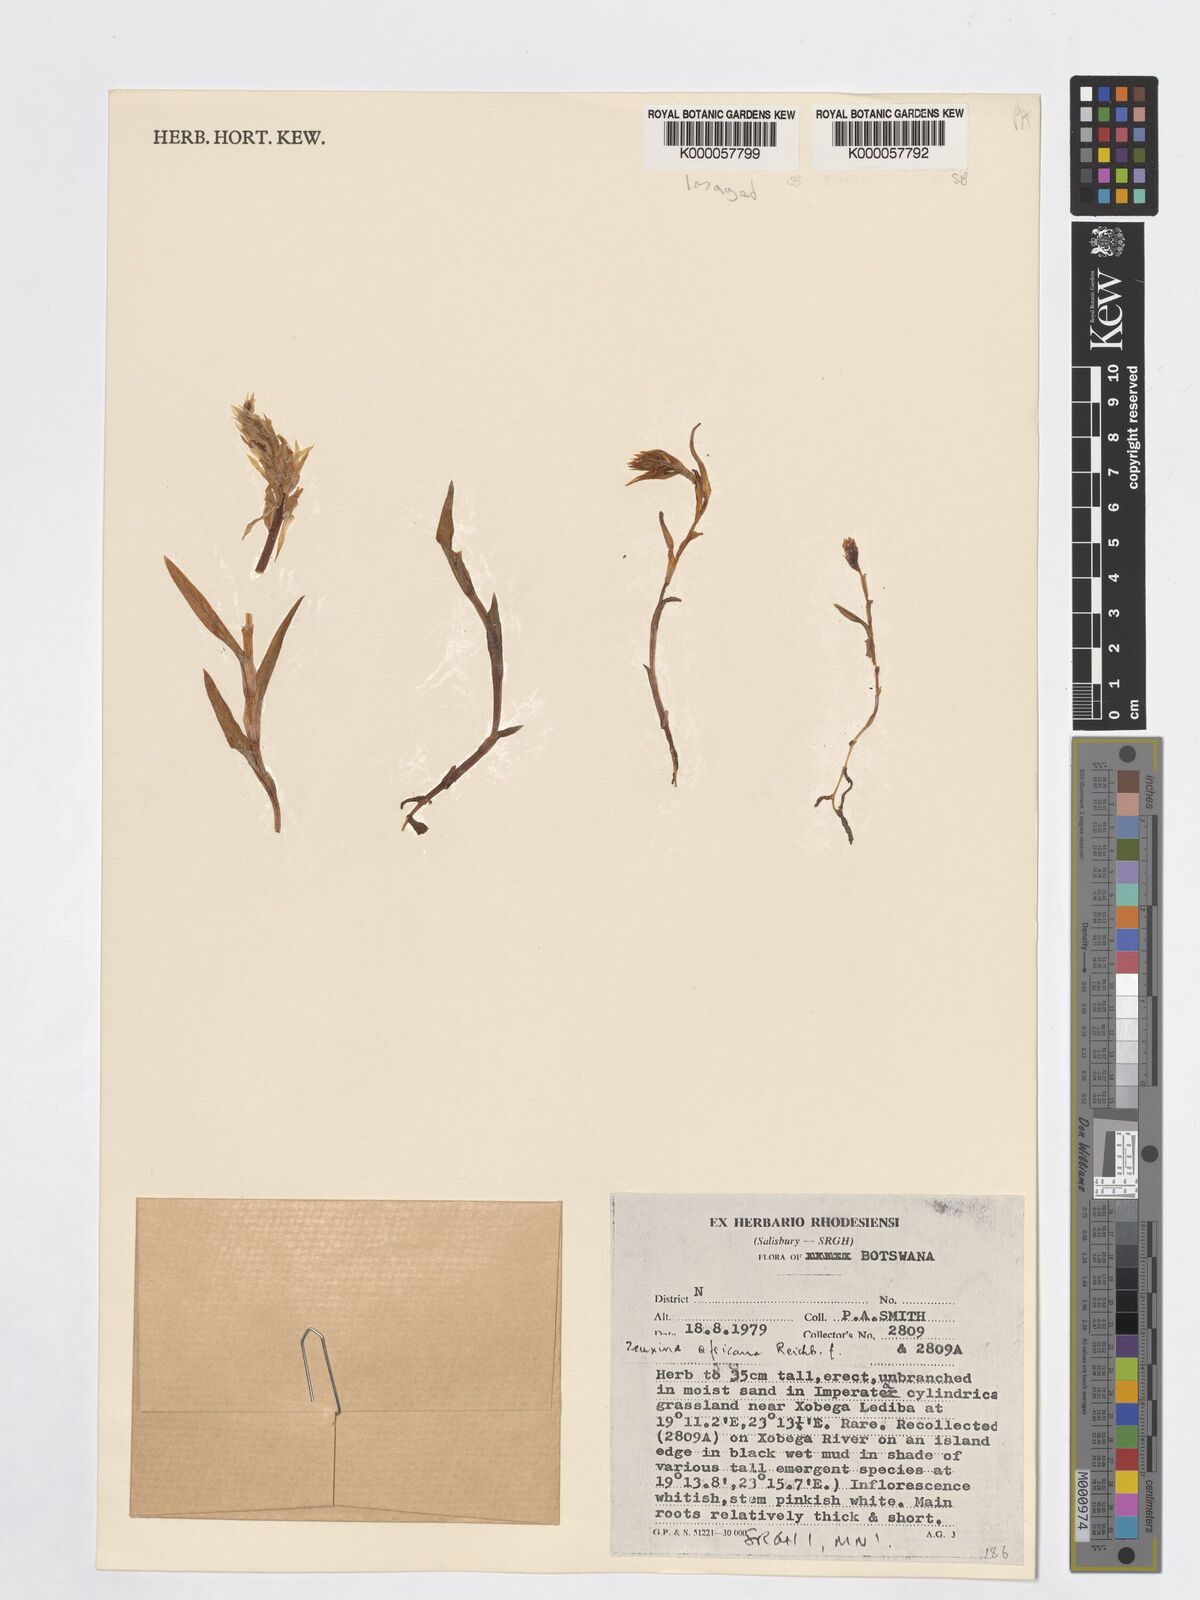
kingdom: Plantae
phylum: Tracheophyta
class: Liliopsida
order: Asparagales
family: Orchidaceae
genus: Zeuxine
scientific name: Zeuxine africana
